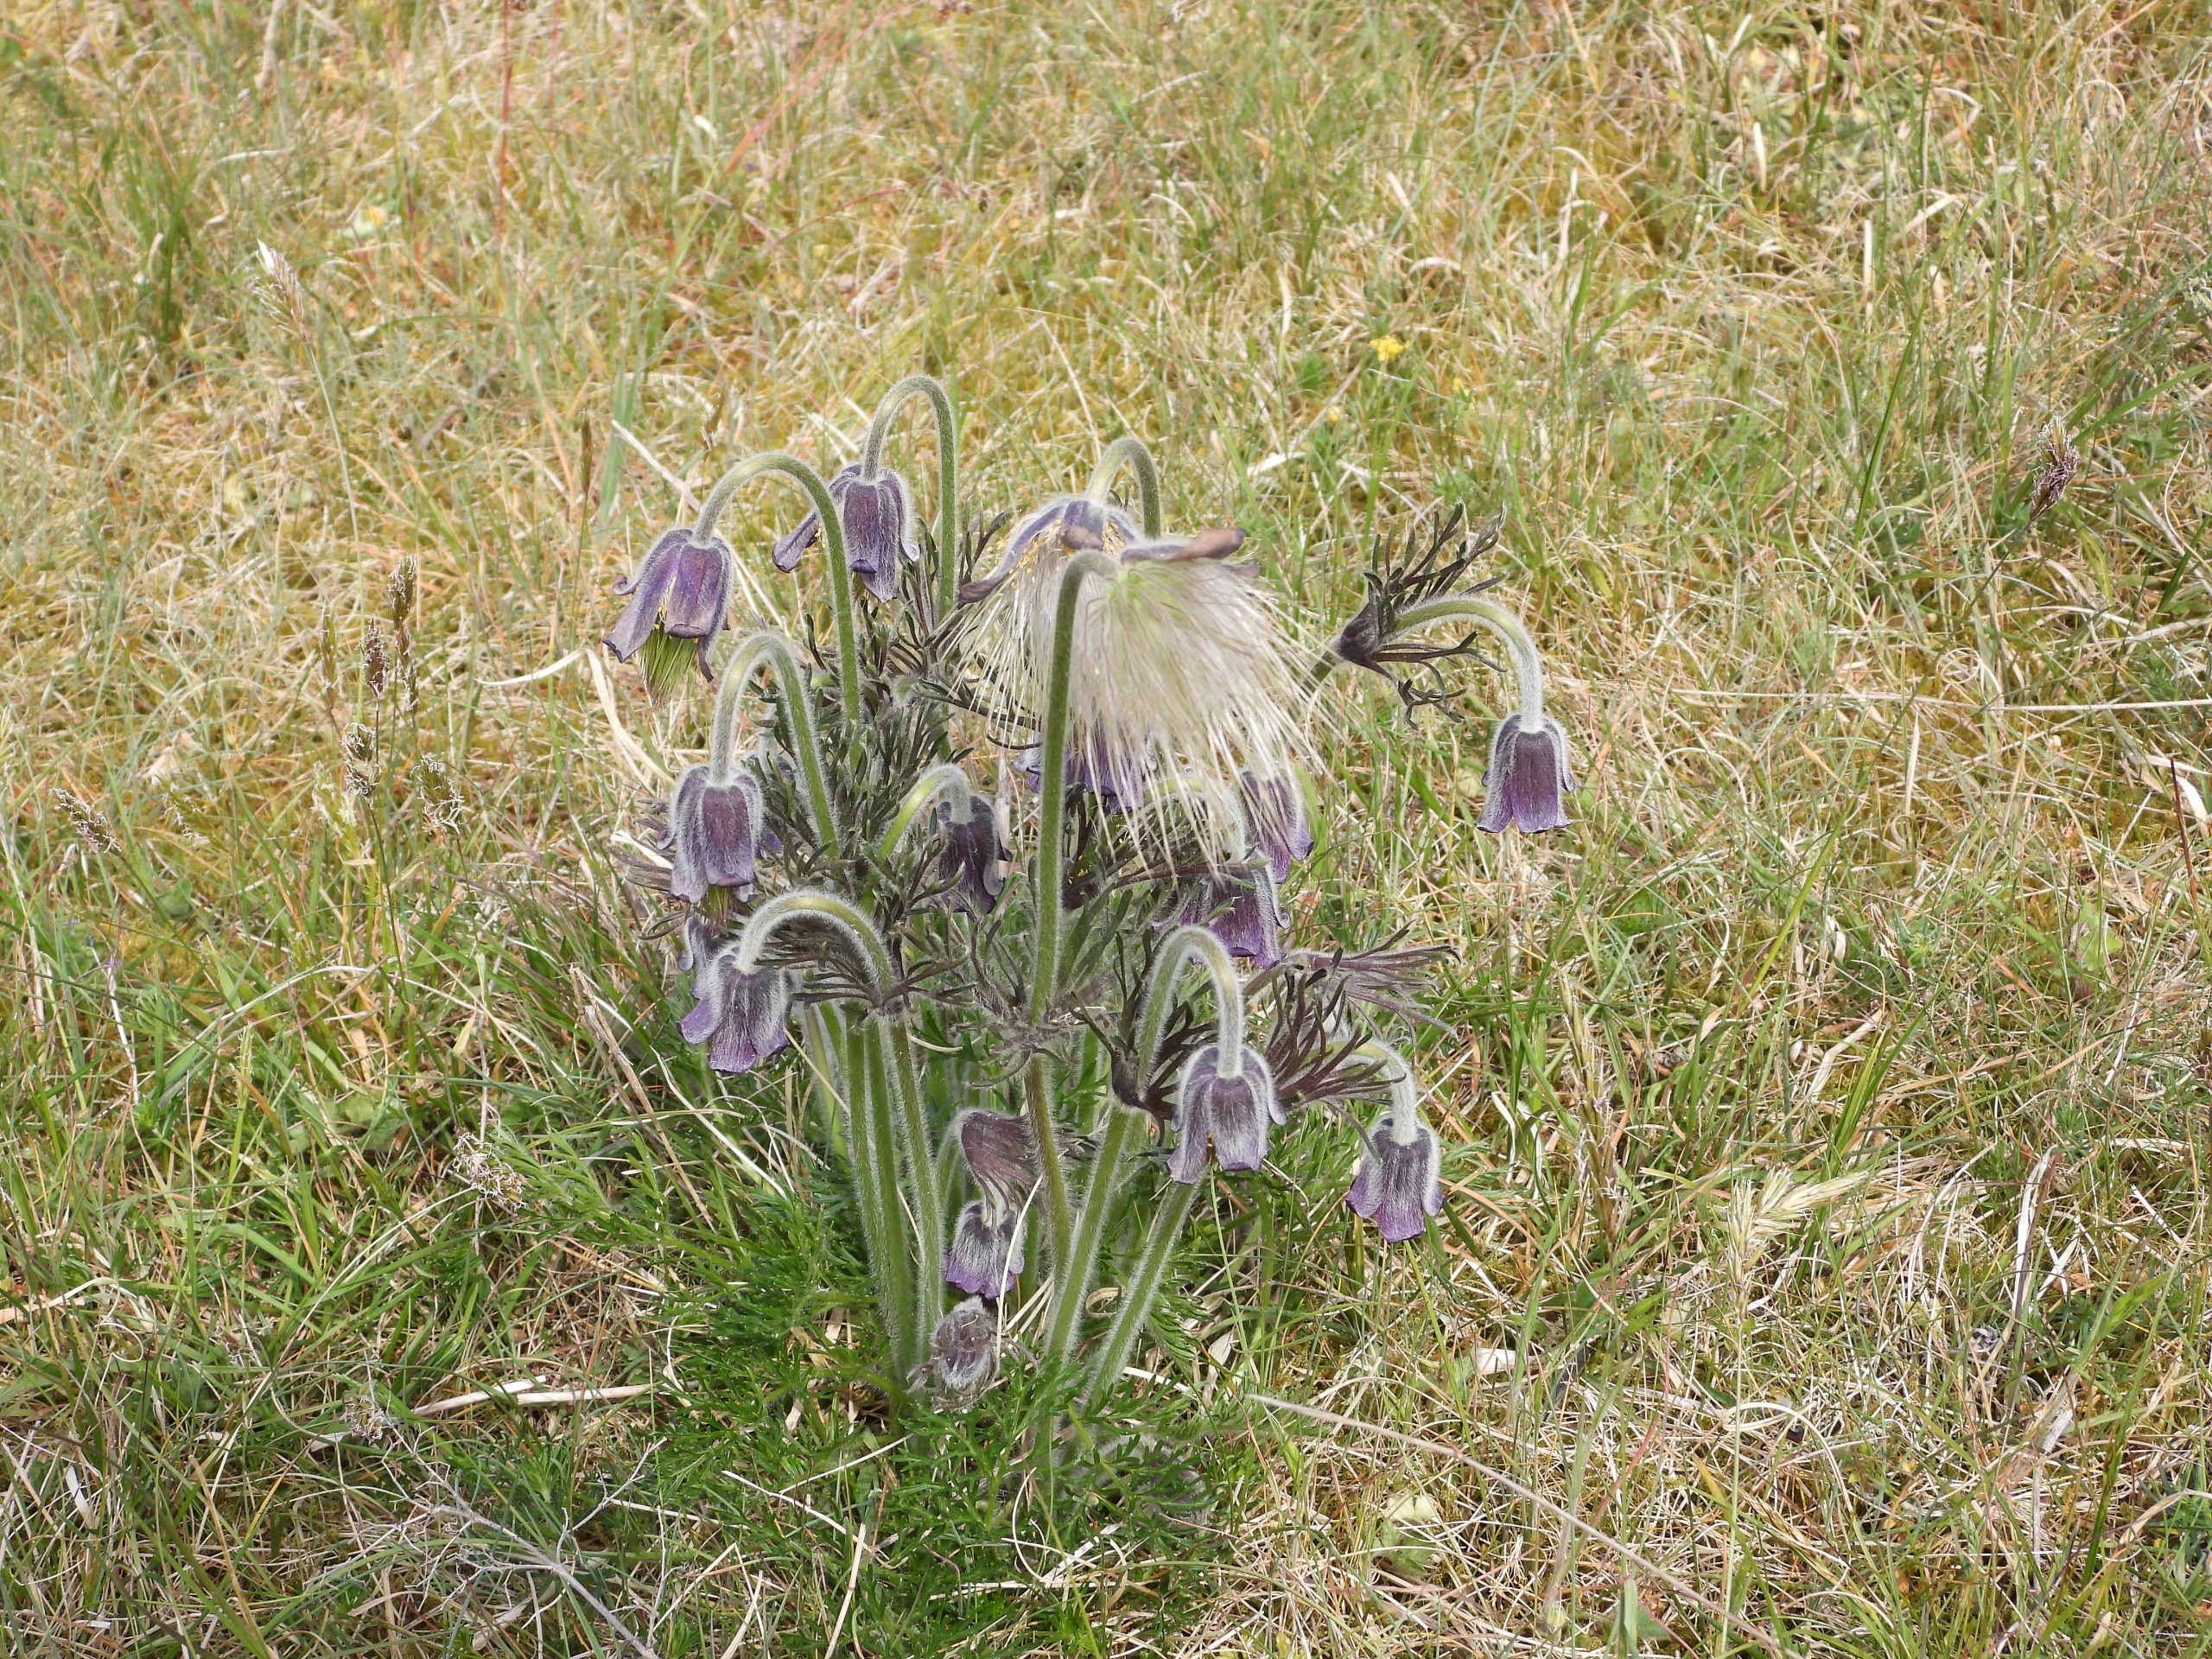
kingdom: Plantae
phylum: Tracheophyta
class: Magnoliopsida
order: Ranunculales
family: Ranunculaceae
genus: Pulsatilla
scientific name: Pulsatilla pratensis
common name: Nikkende kobjælde
